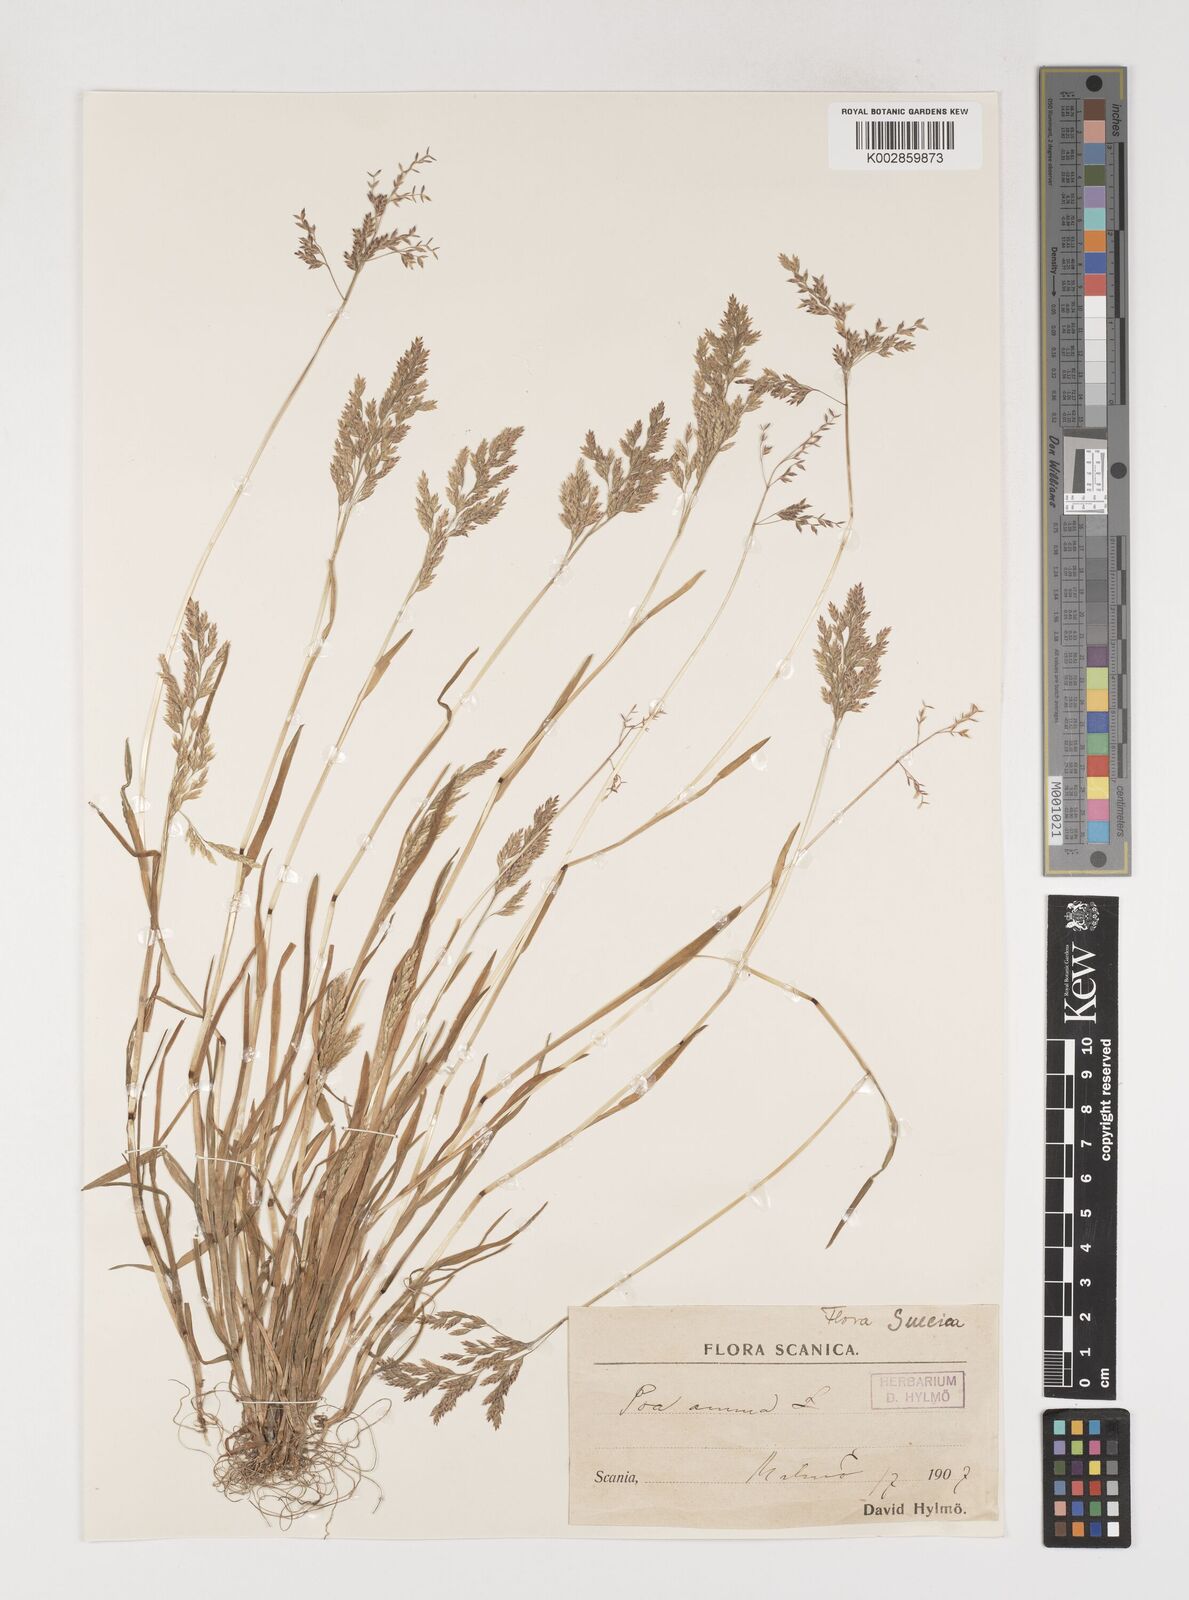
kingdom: Plantae
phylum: Tracheophyta
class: Liliopsida
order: Poales
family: Poaceae
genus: Poa
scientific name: Poa annua
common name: Annual bluegrass
